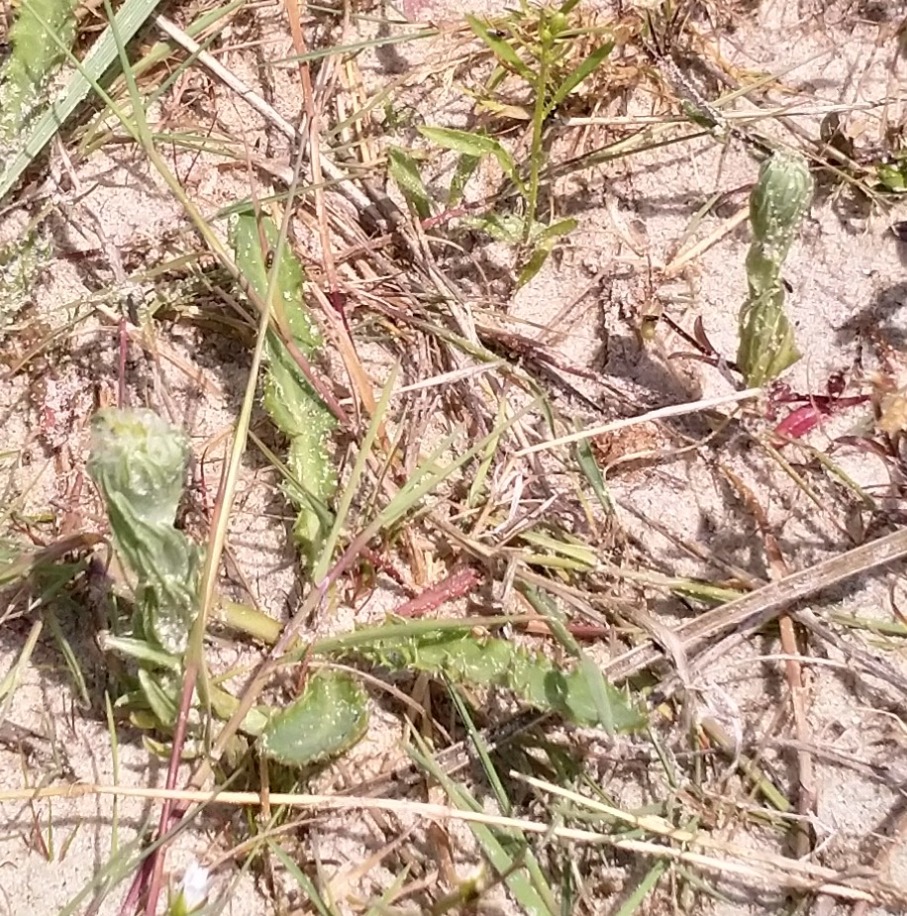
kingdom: Plantae
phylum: Tracheophyta
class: Magnoliopsida
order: Asterales
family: Asteraceae
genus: Filago
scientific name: Filago germanica
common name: Kugle-museurt
